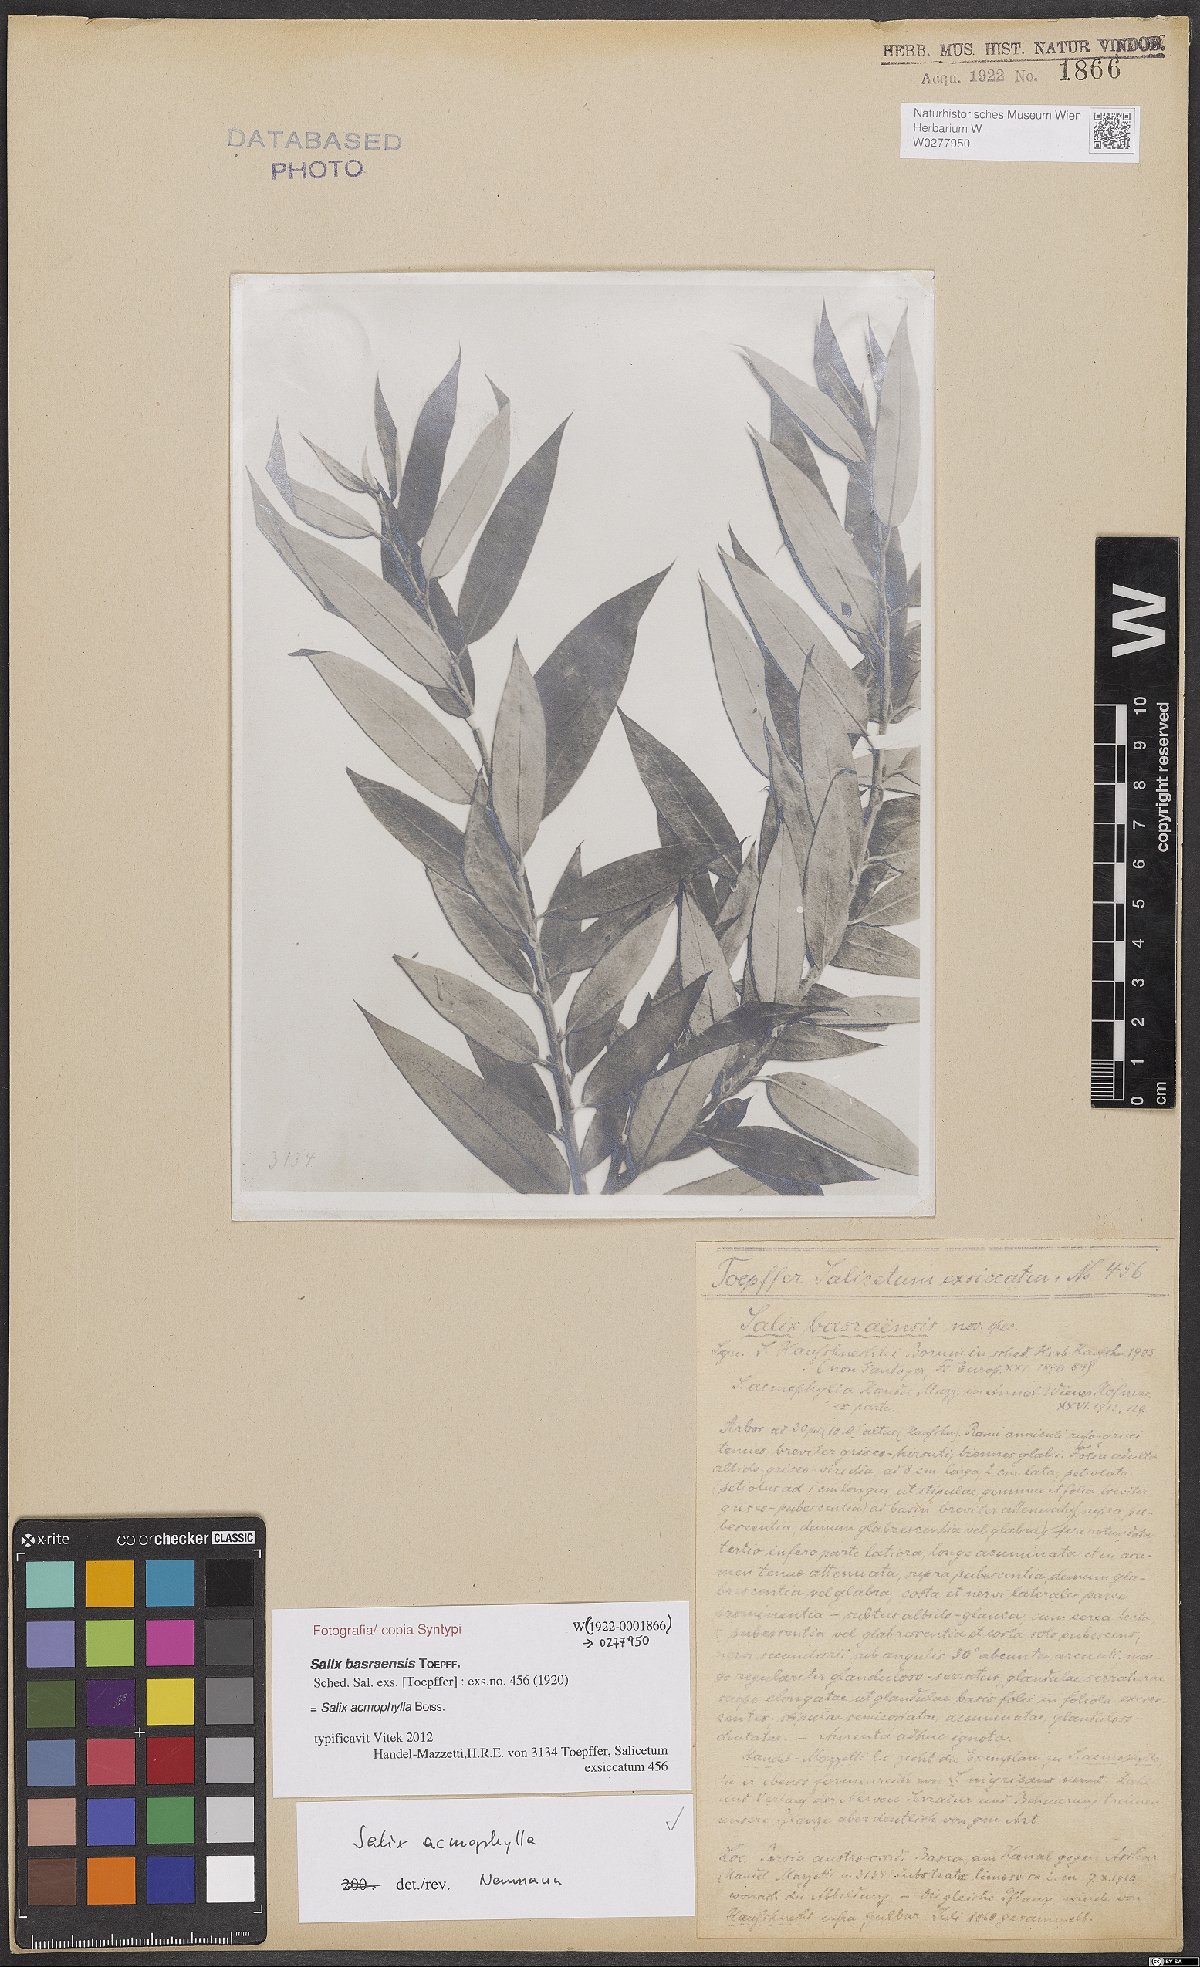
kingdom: Plantae
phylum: Tracheophyta
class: Magnoliopsida
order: Malpighiales
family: Salicaceae
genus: Salix
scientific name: Salix acmophylla
